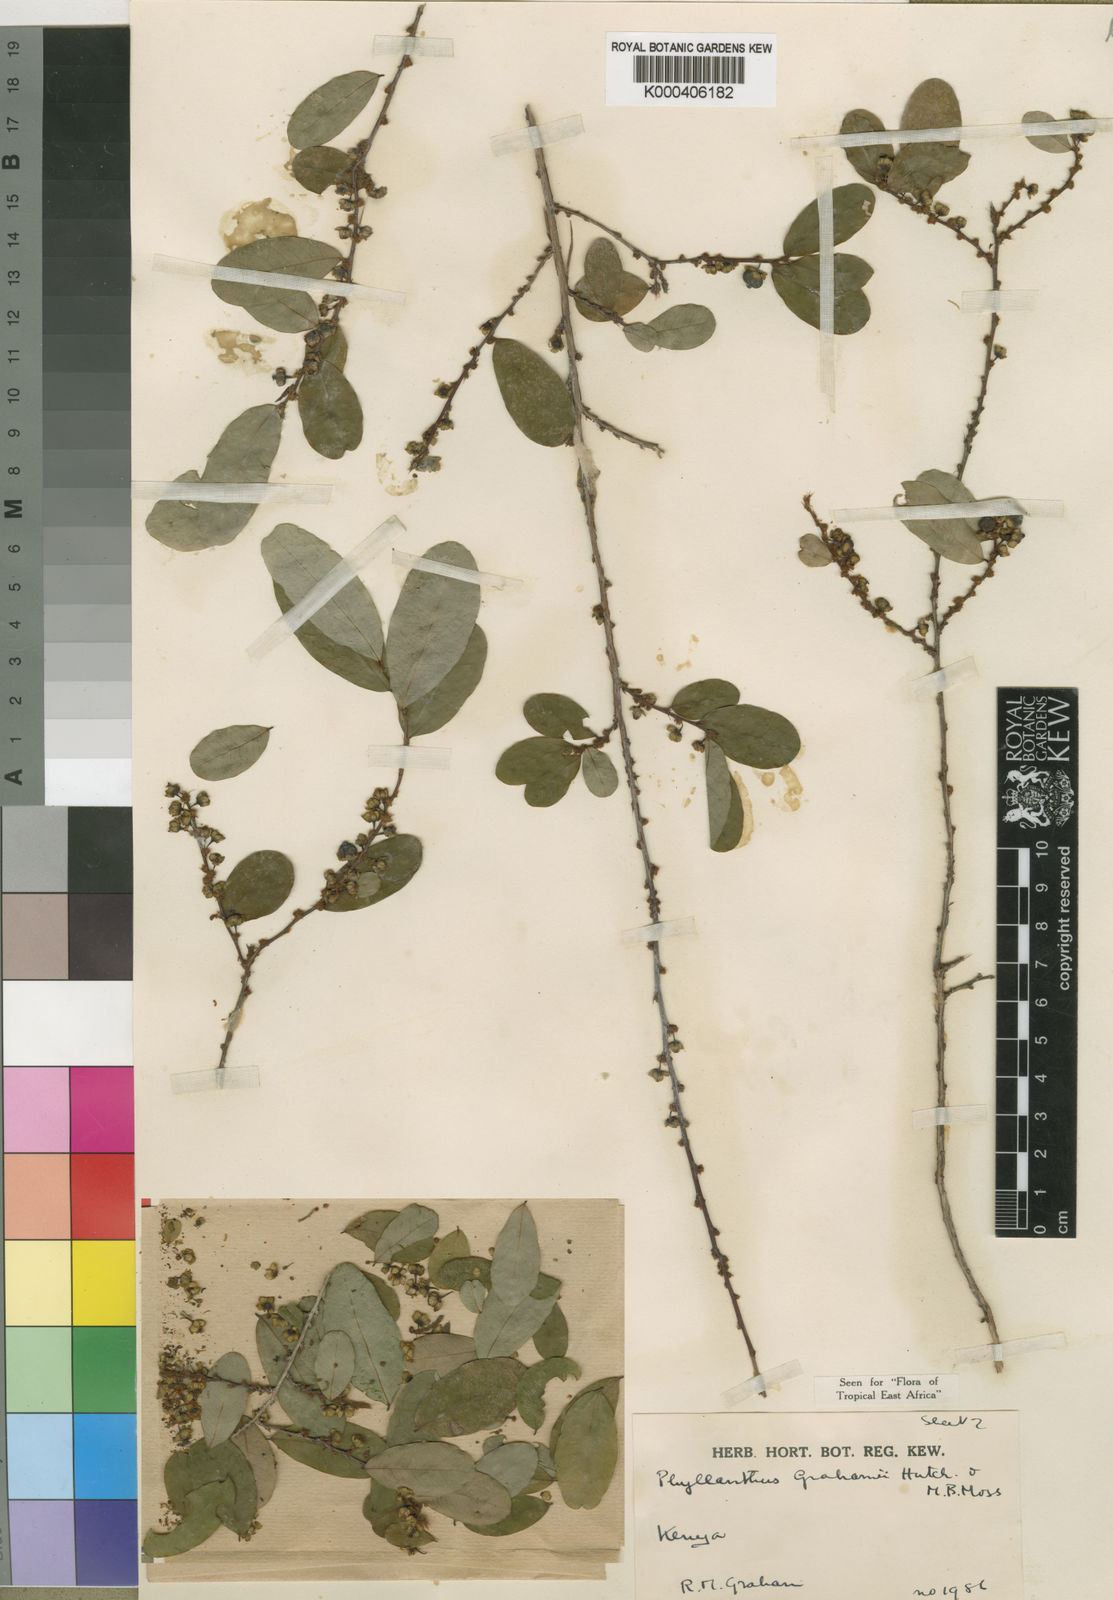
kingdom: Plantae
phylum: Tracheophyta
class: Magnoliopsida
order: Malpighiales
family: Phyllanthaceae
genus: Phyllanthus
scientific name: Phyllanthus welwitschianus
